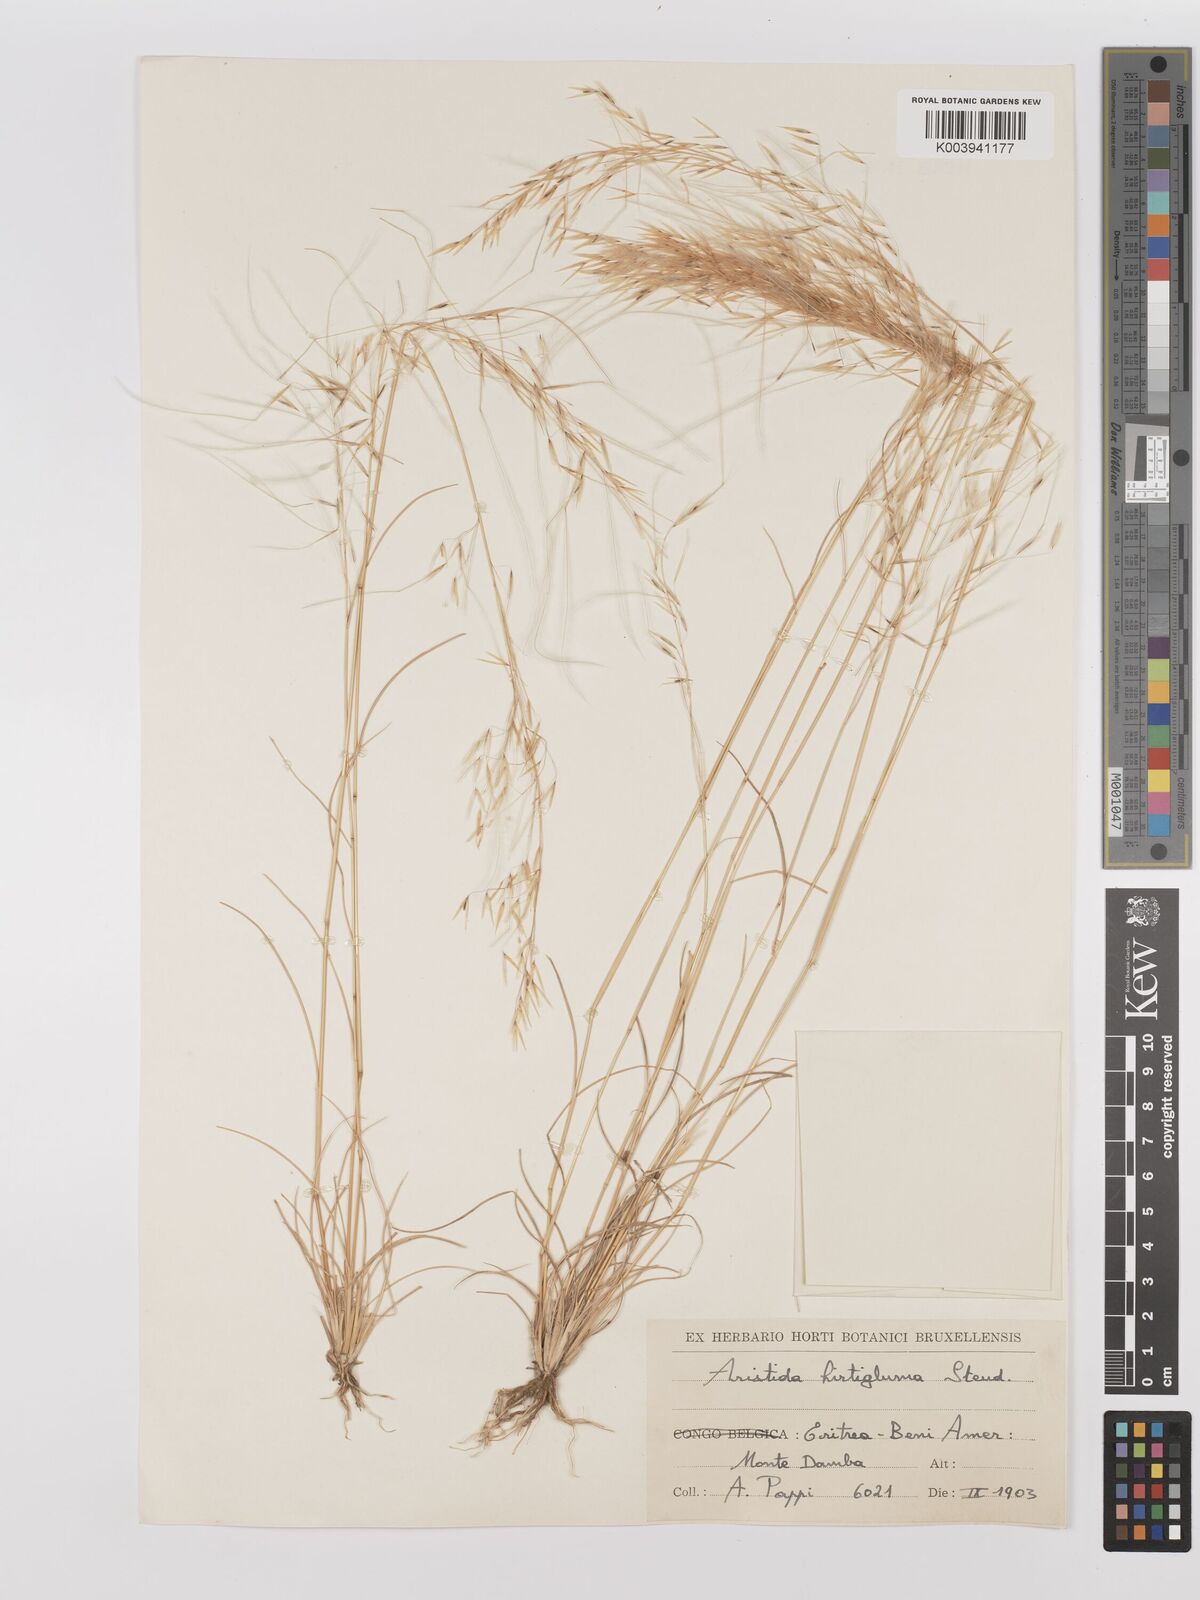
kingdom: Plantae
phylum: Tracheophyta
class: Liliopsida
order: Poales
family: Poaceae
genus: Stipagrostis
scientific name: Stipagrostis hirtigluma
